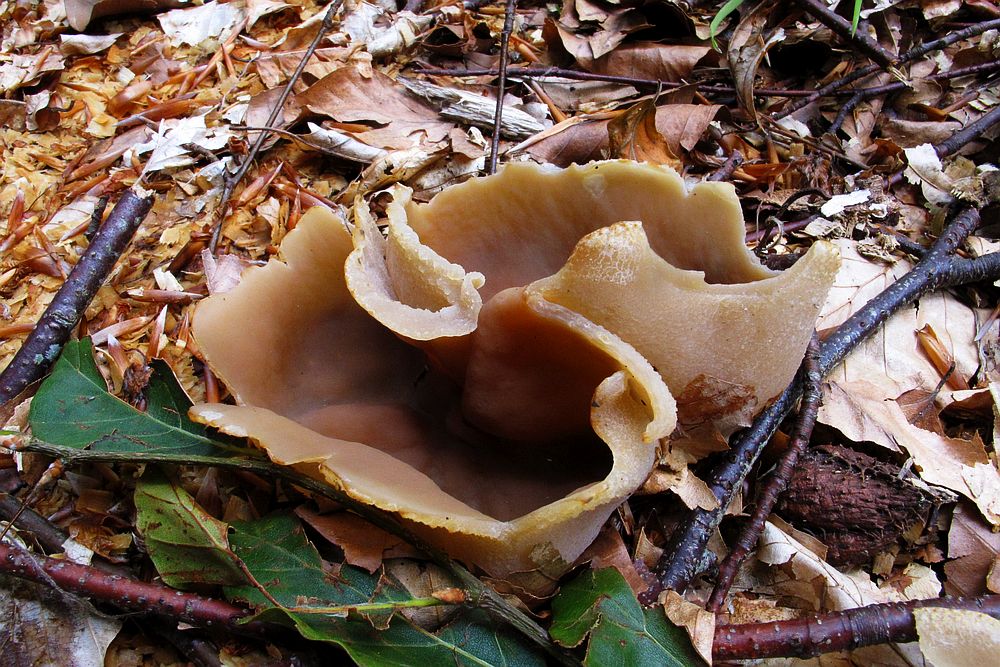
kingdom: Fungi
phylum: Ascomycota
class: Pezizomycetes
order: Pezizales
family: Pezizaceae
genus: Peziza
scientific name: Peziza arvernensis
